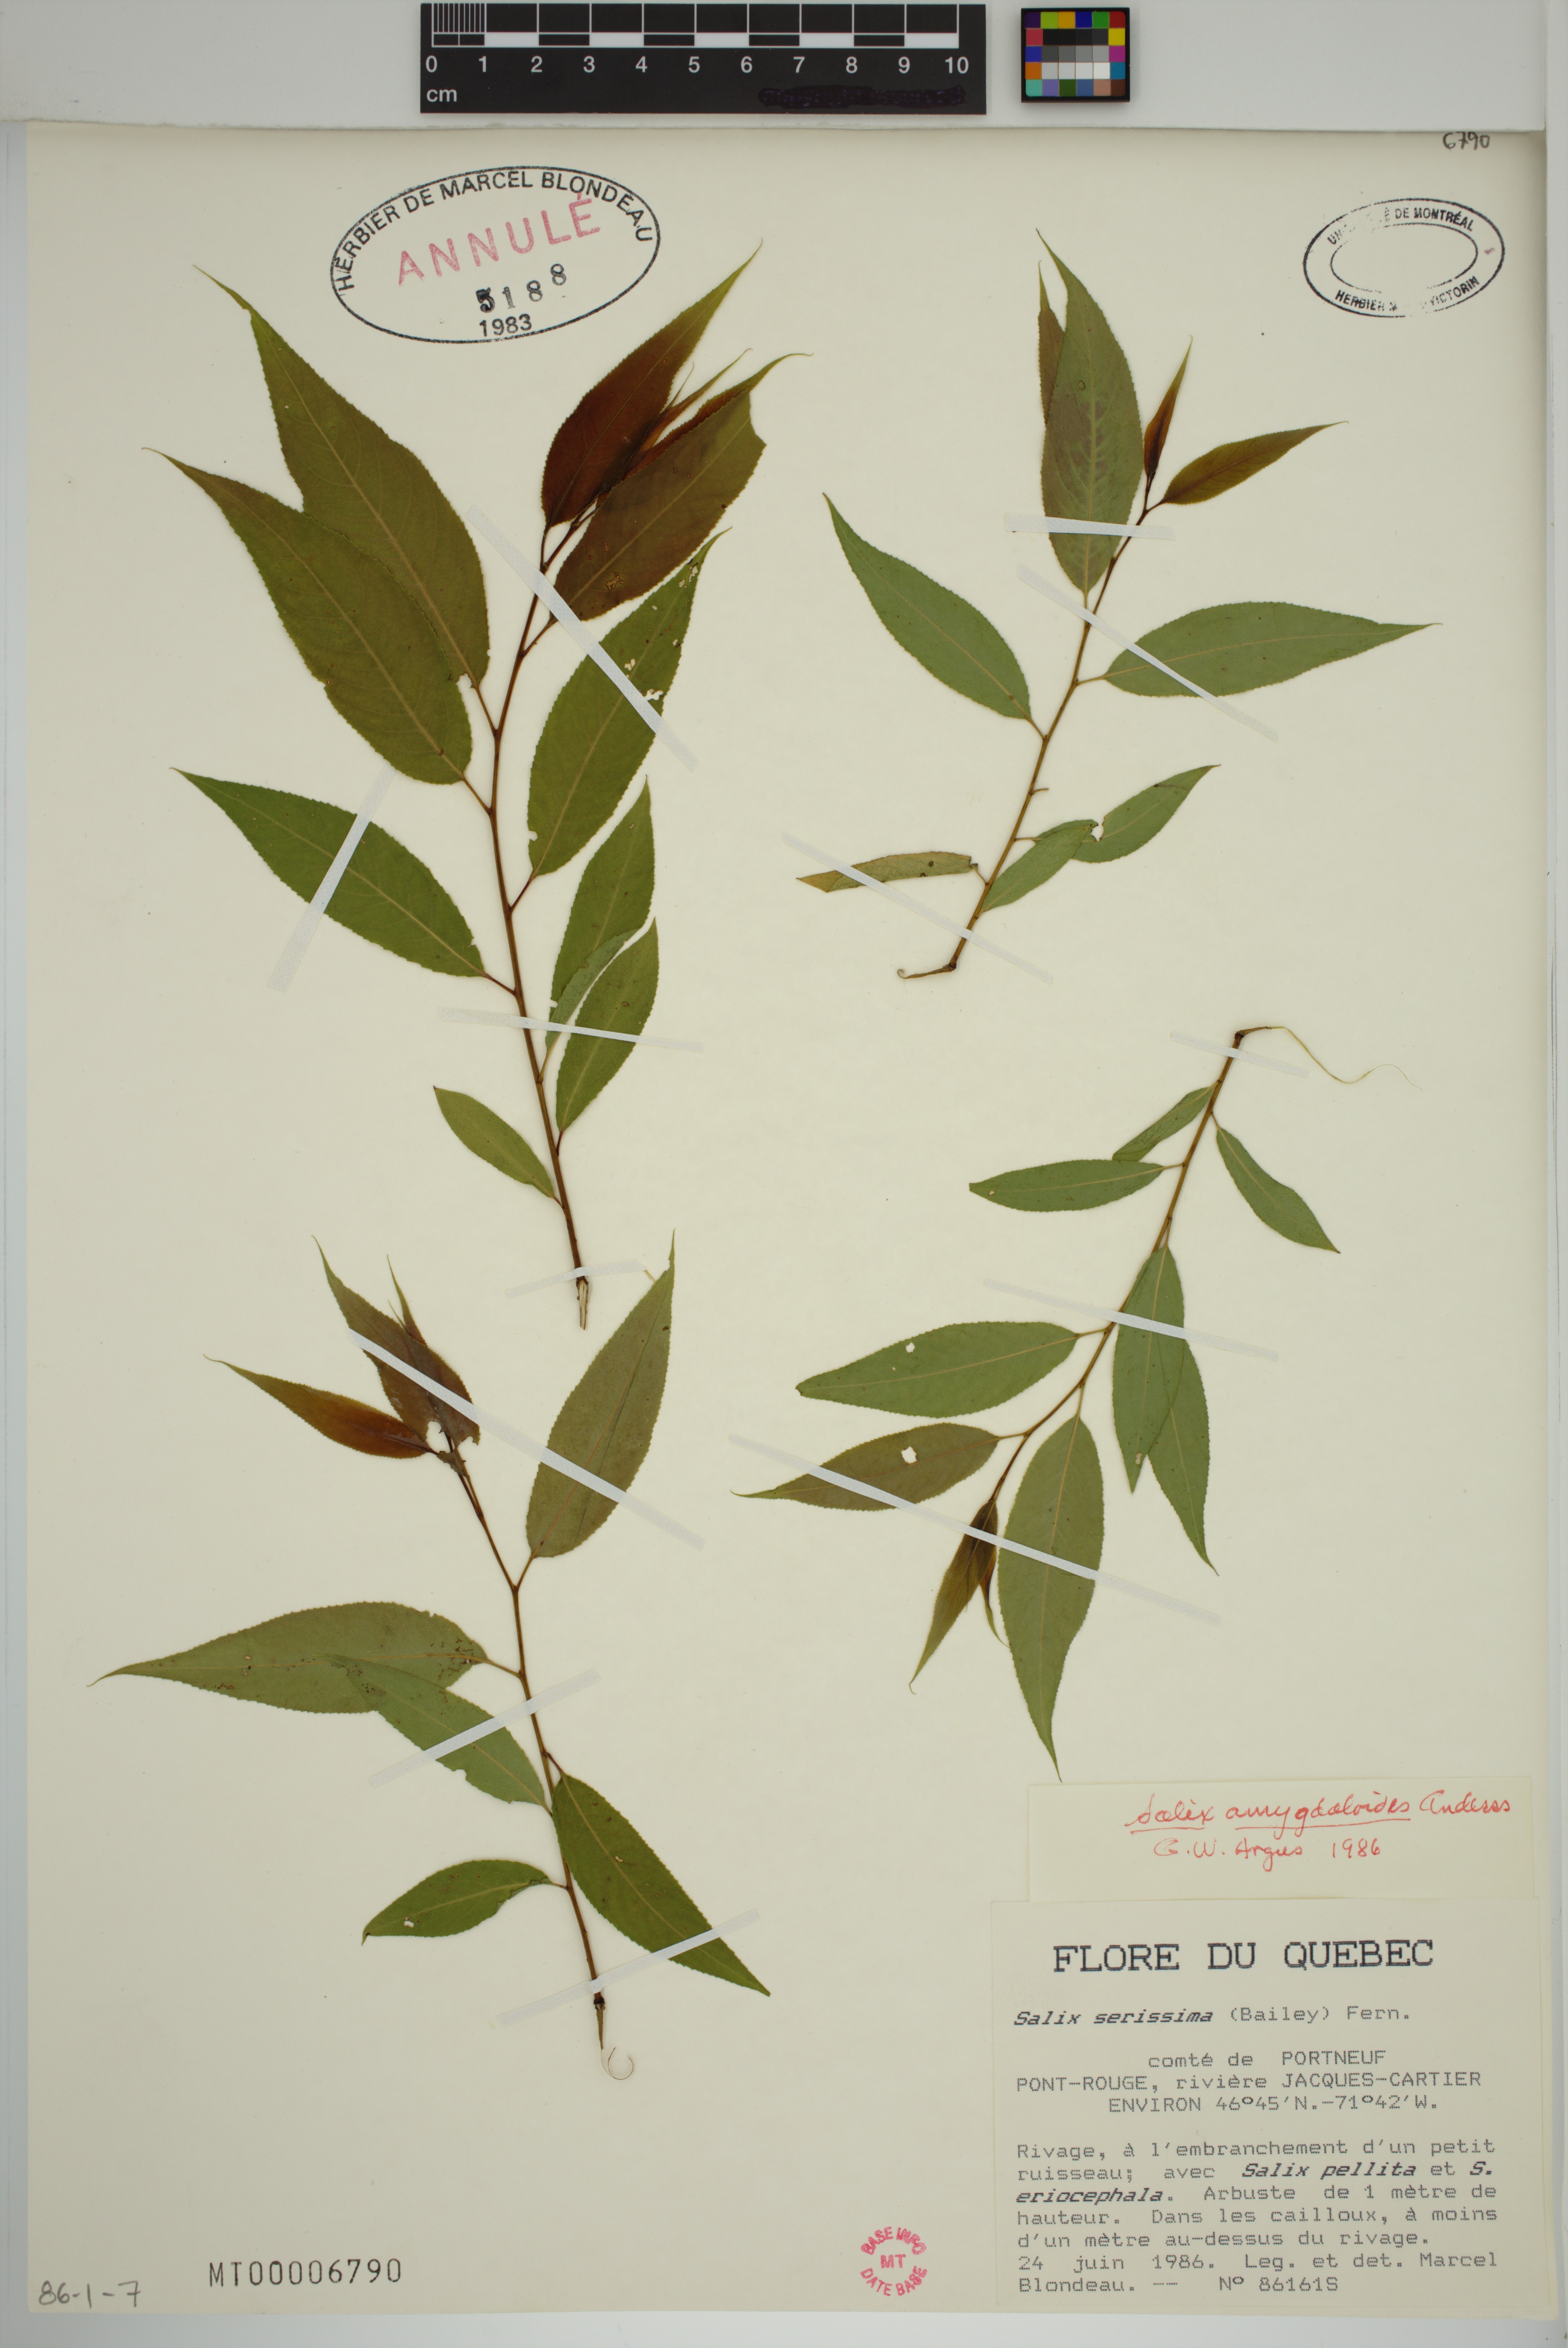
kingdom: Plantae
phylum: Tracheophyta
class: Magnoliopsida
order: Malpighiales
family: Salicaceae
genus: Salix
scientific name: Salix amygdaloides
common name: Peach leaf willow
